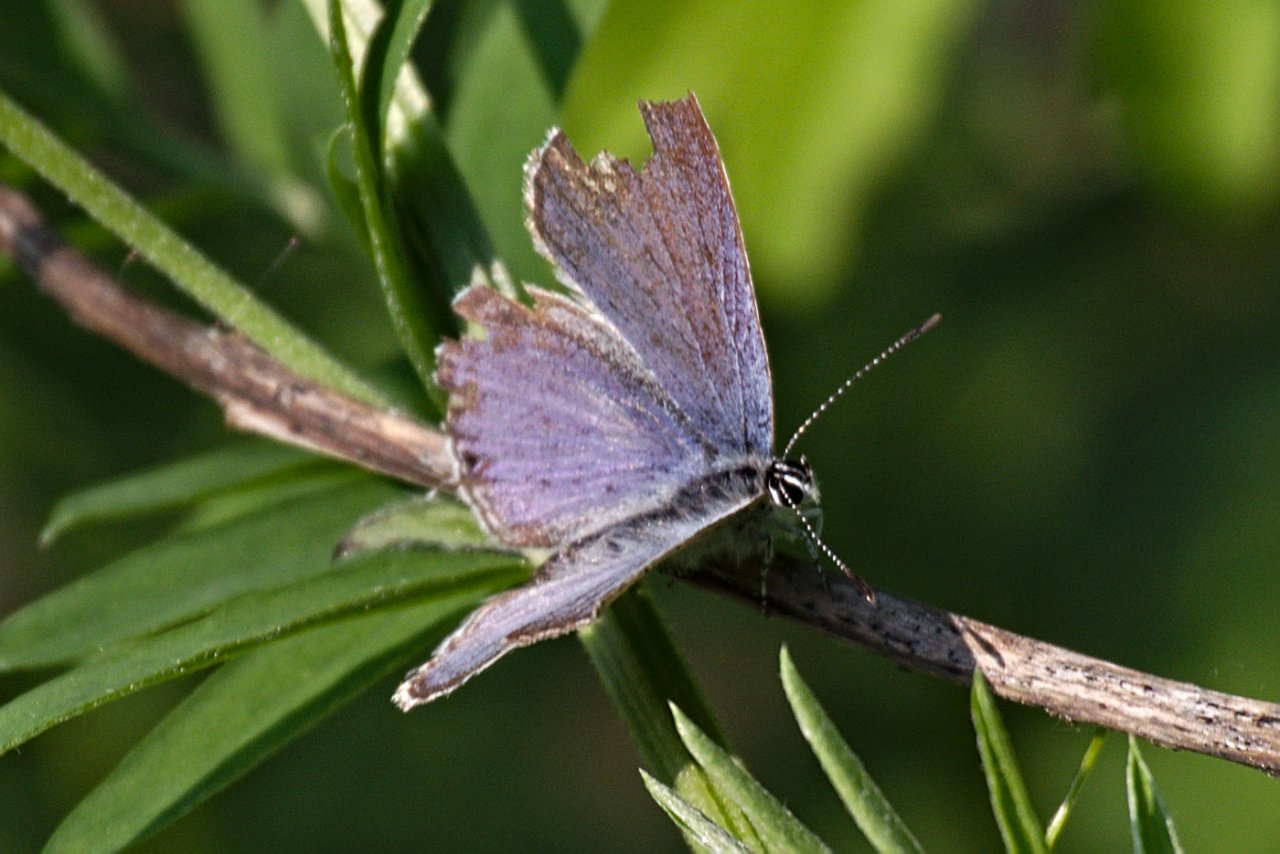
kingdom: Animalia
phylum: Arthropoda
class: Insecta
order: Lepidoptera
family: Lycaenidae
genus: Glaucopsyche
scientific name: Glaucopsyche lygdamus
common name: Silvery Blue
